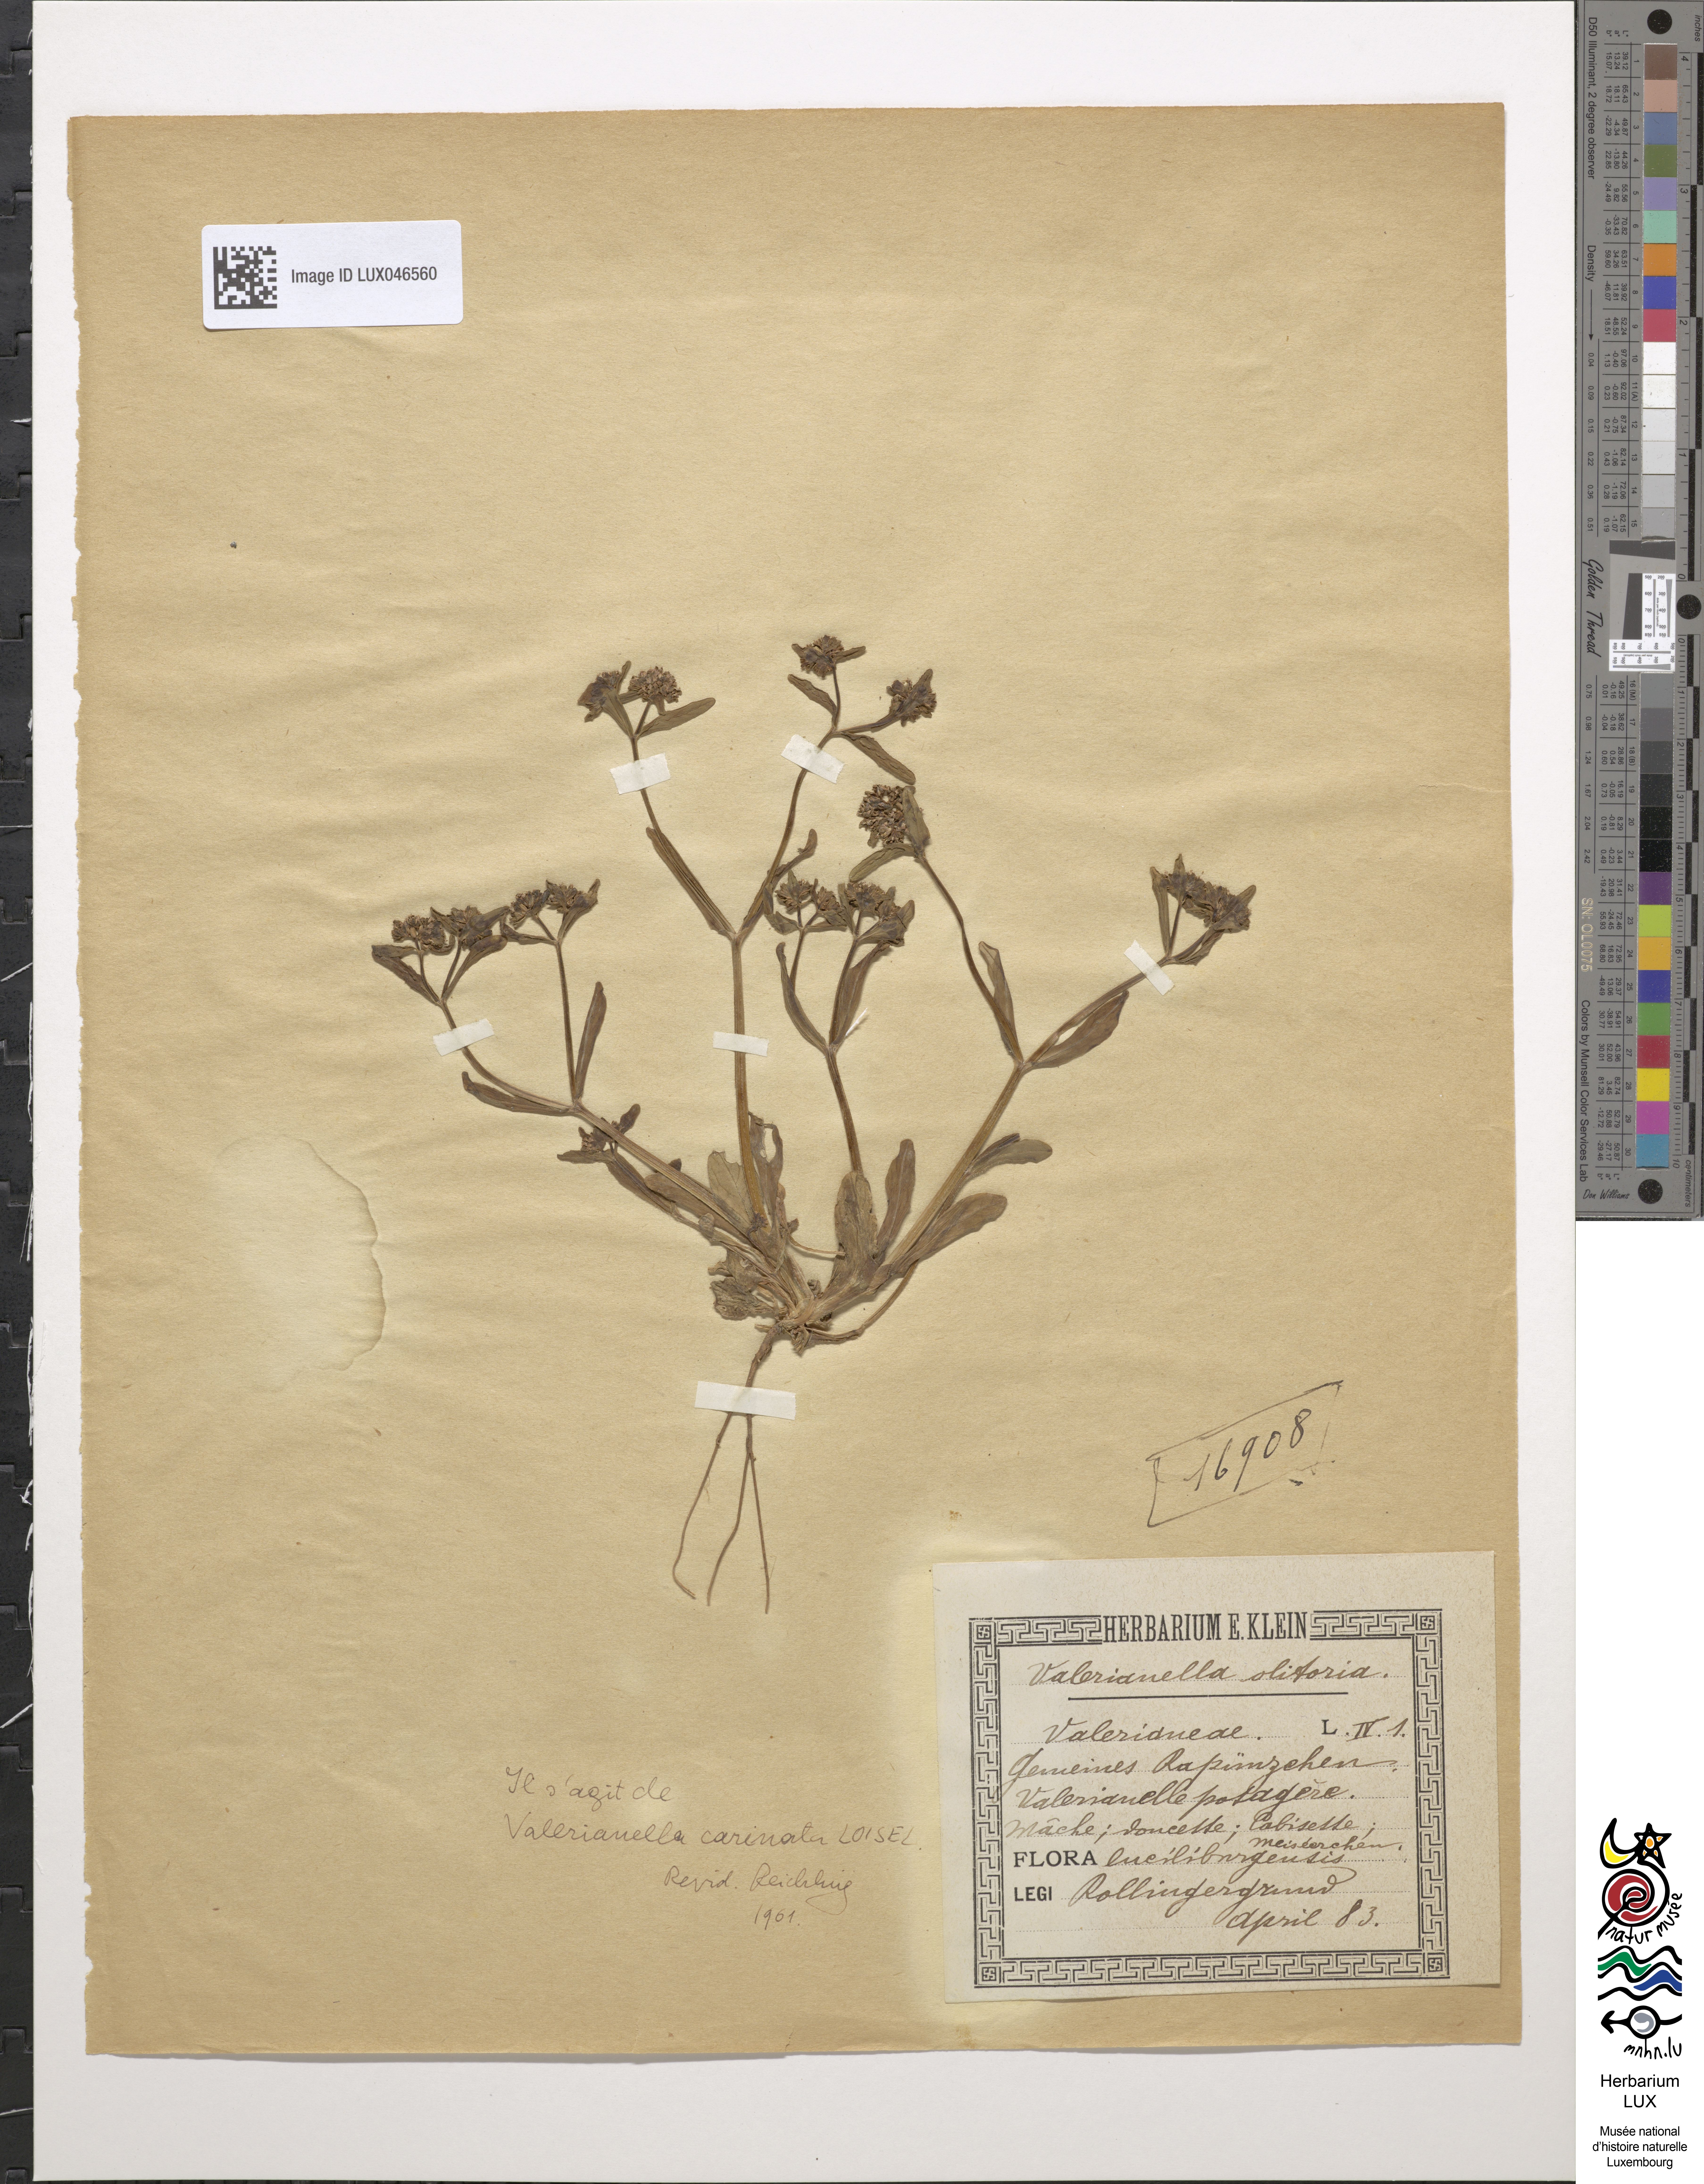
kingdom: Plantae
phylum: Tracheophyta
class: Magnoliopsida
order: Dipsacales
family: Caprifoliaceae
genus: Valerianella
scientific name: Valerianella carinata
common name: Keeled-fruited cornsalad
